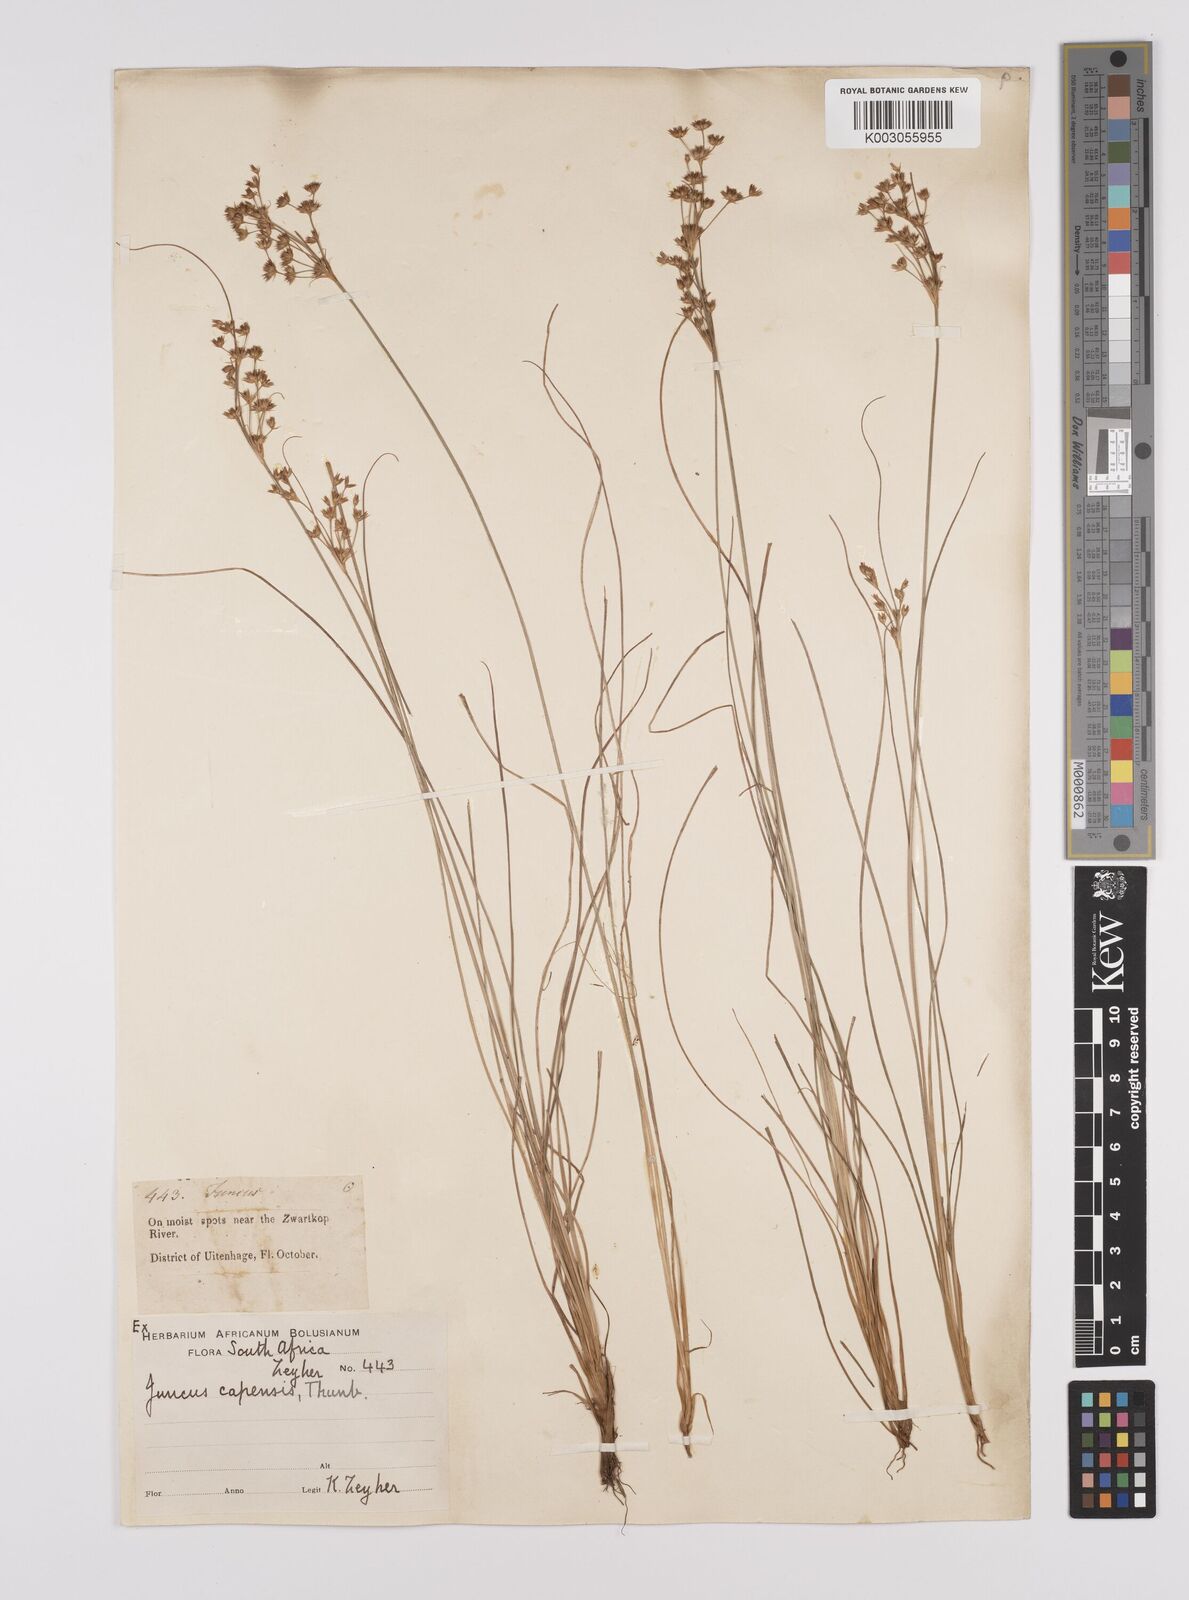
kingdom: Plantae
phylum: Tracheophyta
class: Liliopsida
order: Poales
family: Juncaceae
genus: Juncus
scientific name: Juncus capensis
